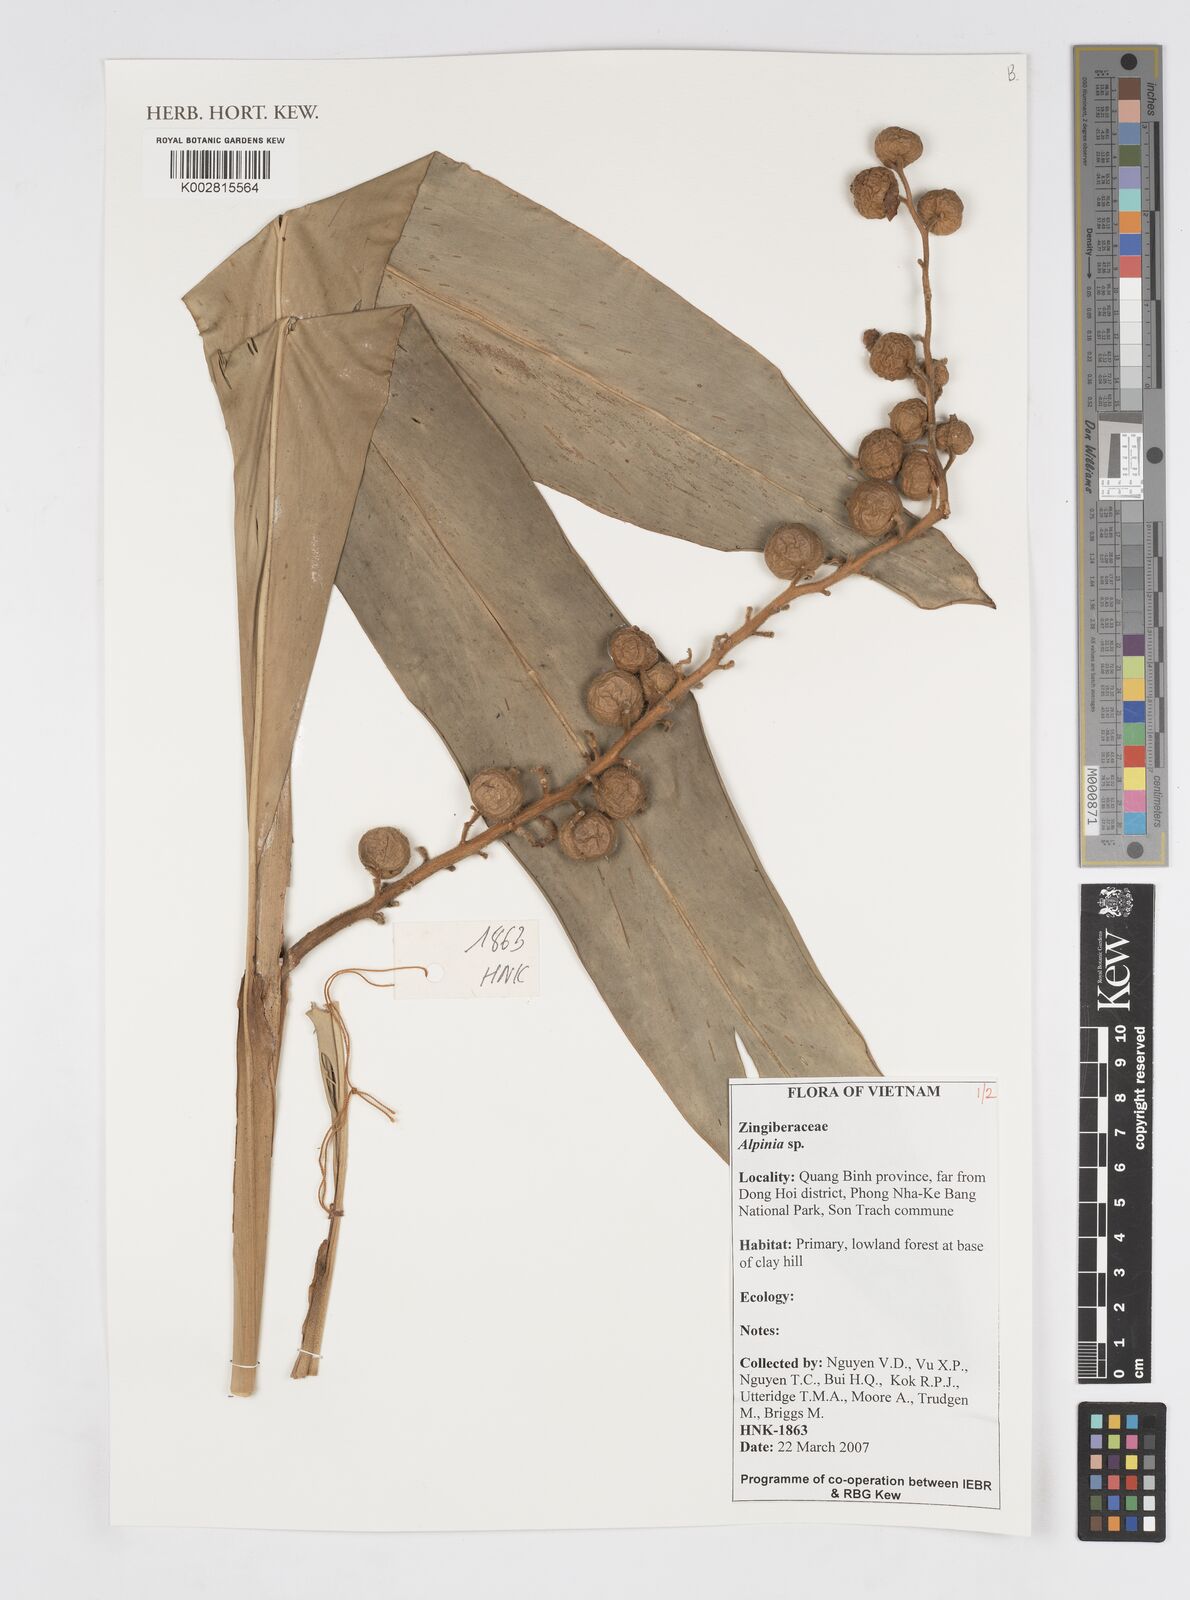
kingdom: Plantae
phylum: Tracheophyta
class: Liliopsida
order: Zingiberales
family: Zingiberaceae
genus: Alpinia
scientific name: Alpinia
